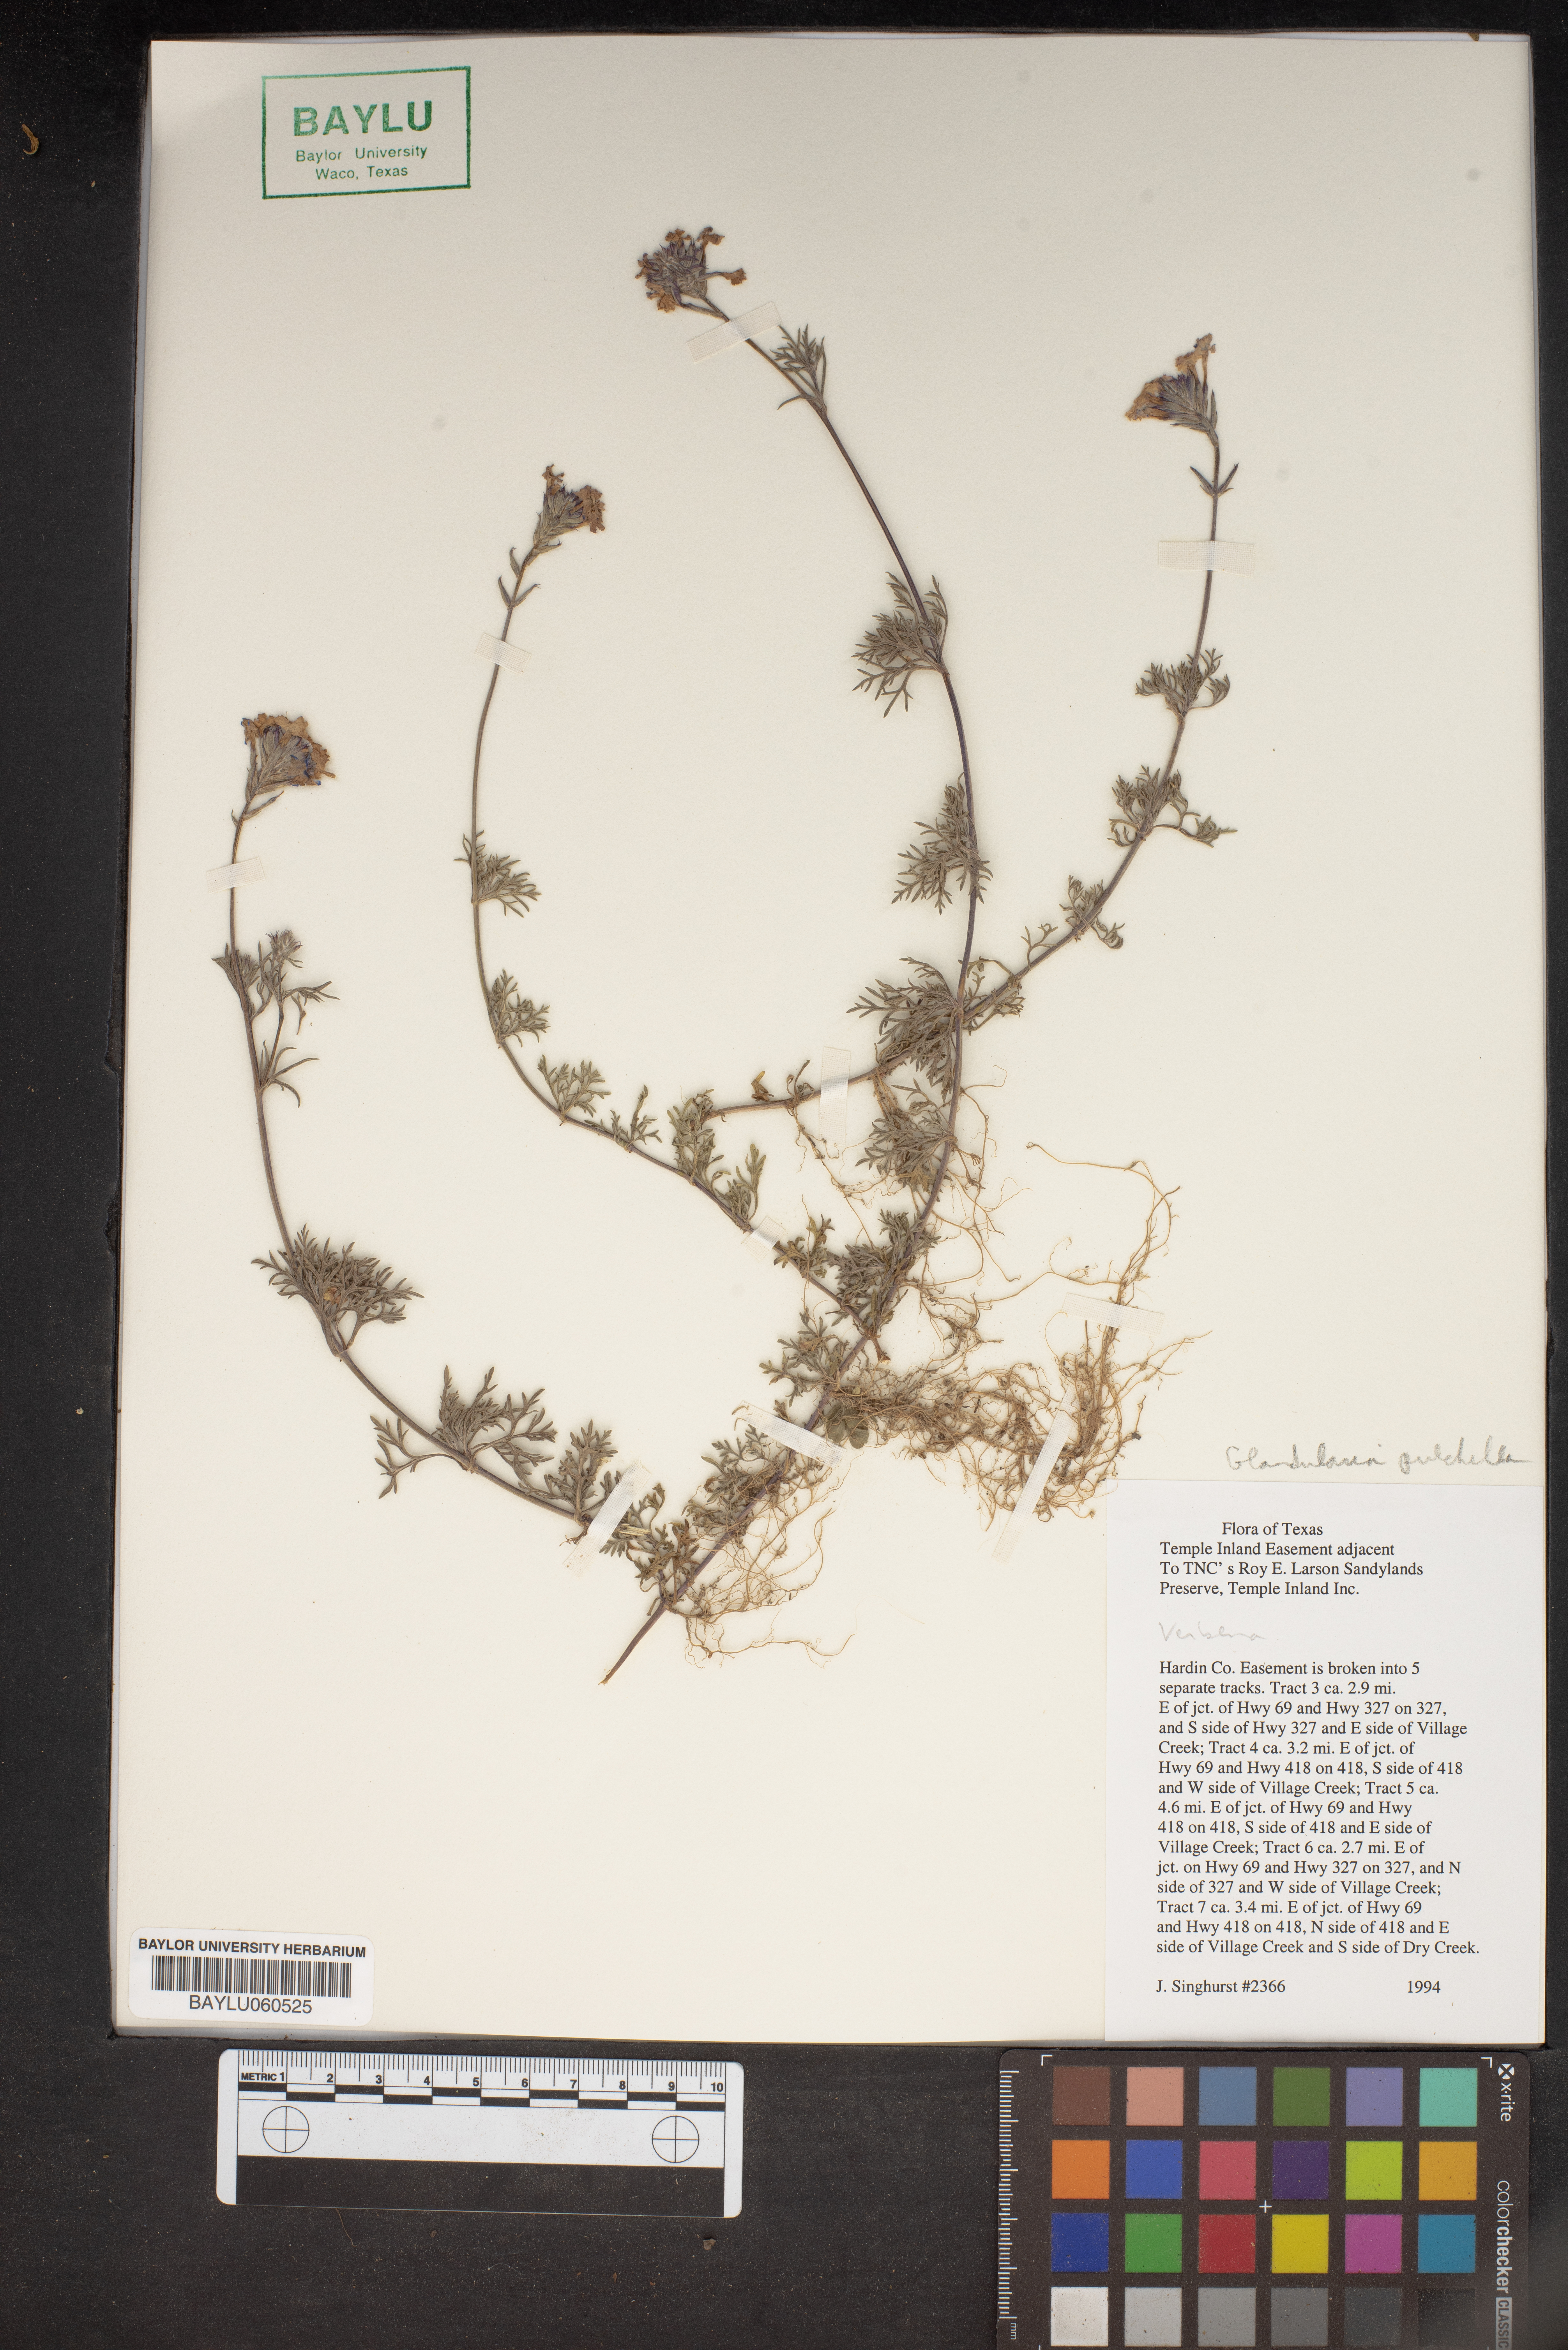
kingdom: Plantae
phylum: Tracheophyta
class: Magnoliopsida
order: Lamiales
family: Verbenaceae
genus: Verbena
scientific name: Verbena tenera
